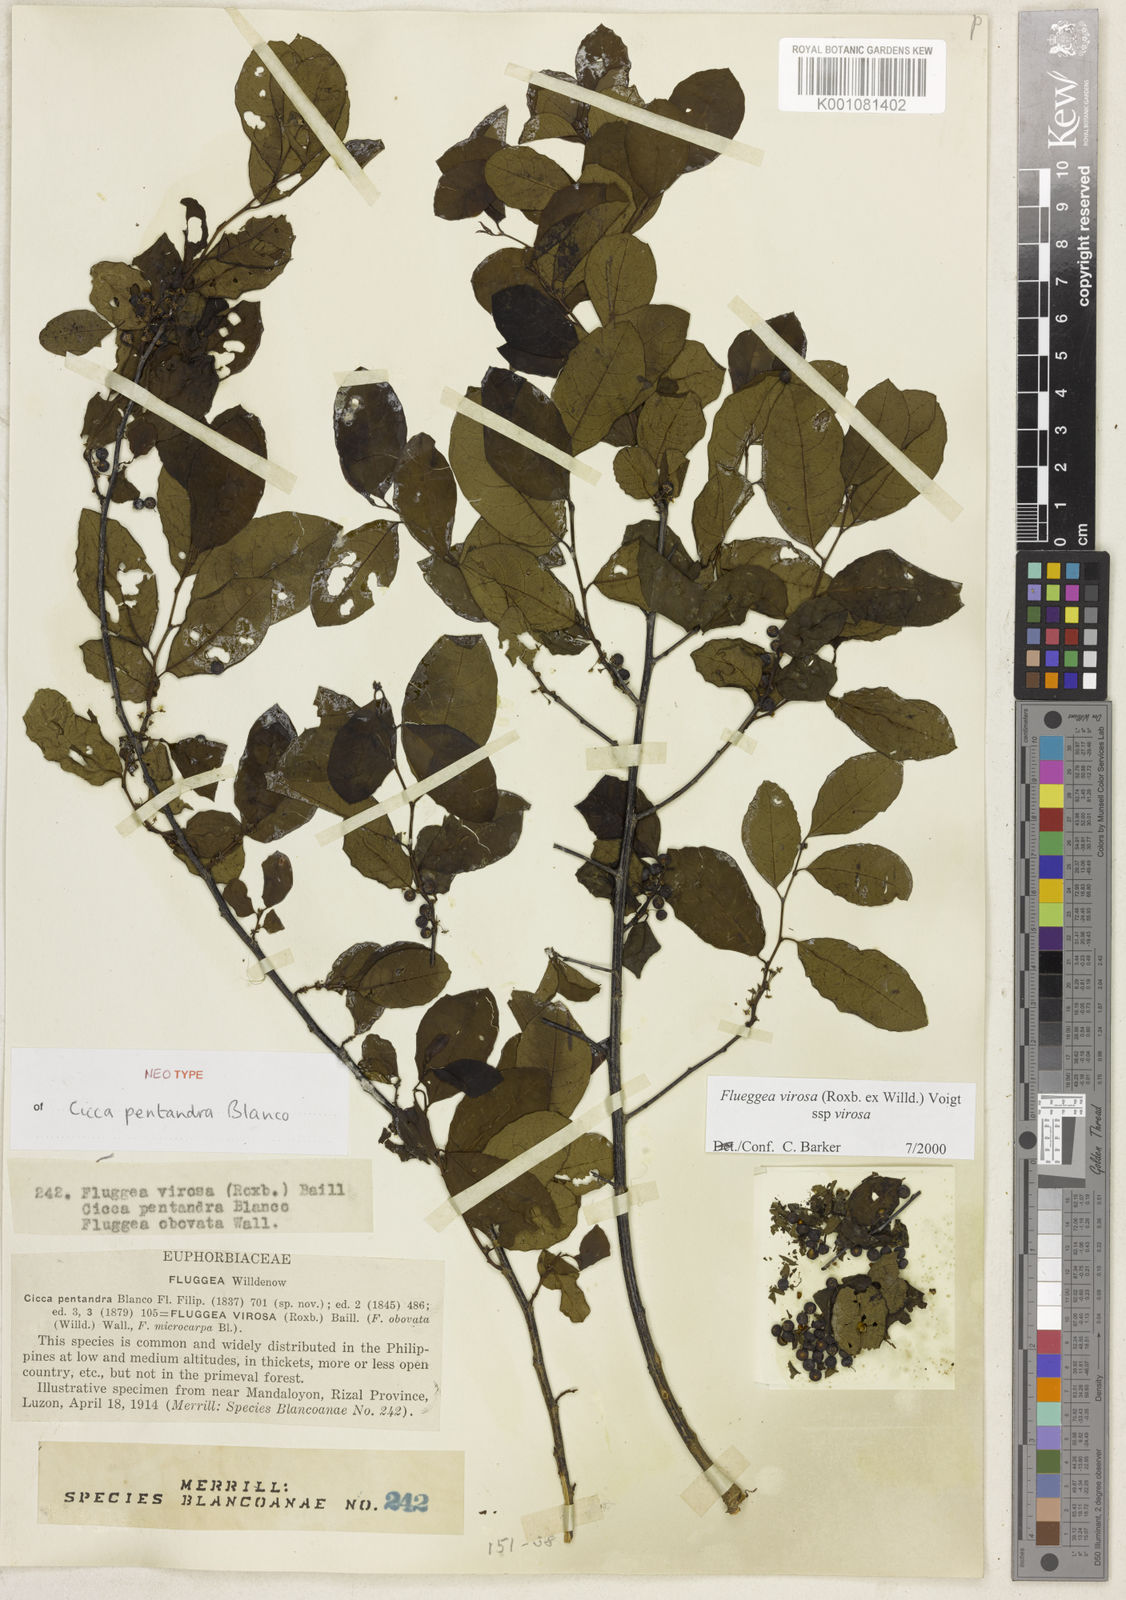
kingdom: Plantae
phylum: Tracheophyta
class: Magnoliopsida
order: Malpighiales
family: Phyllanthaceae
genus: Flueggea
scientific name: Flueggea virosa
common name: Common bushweed
